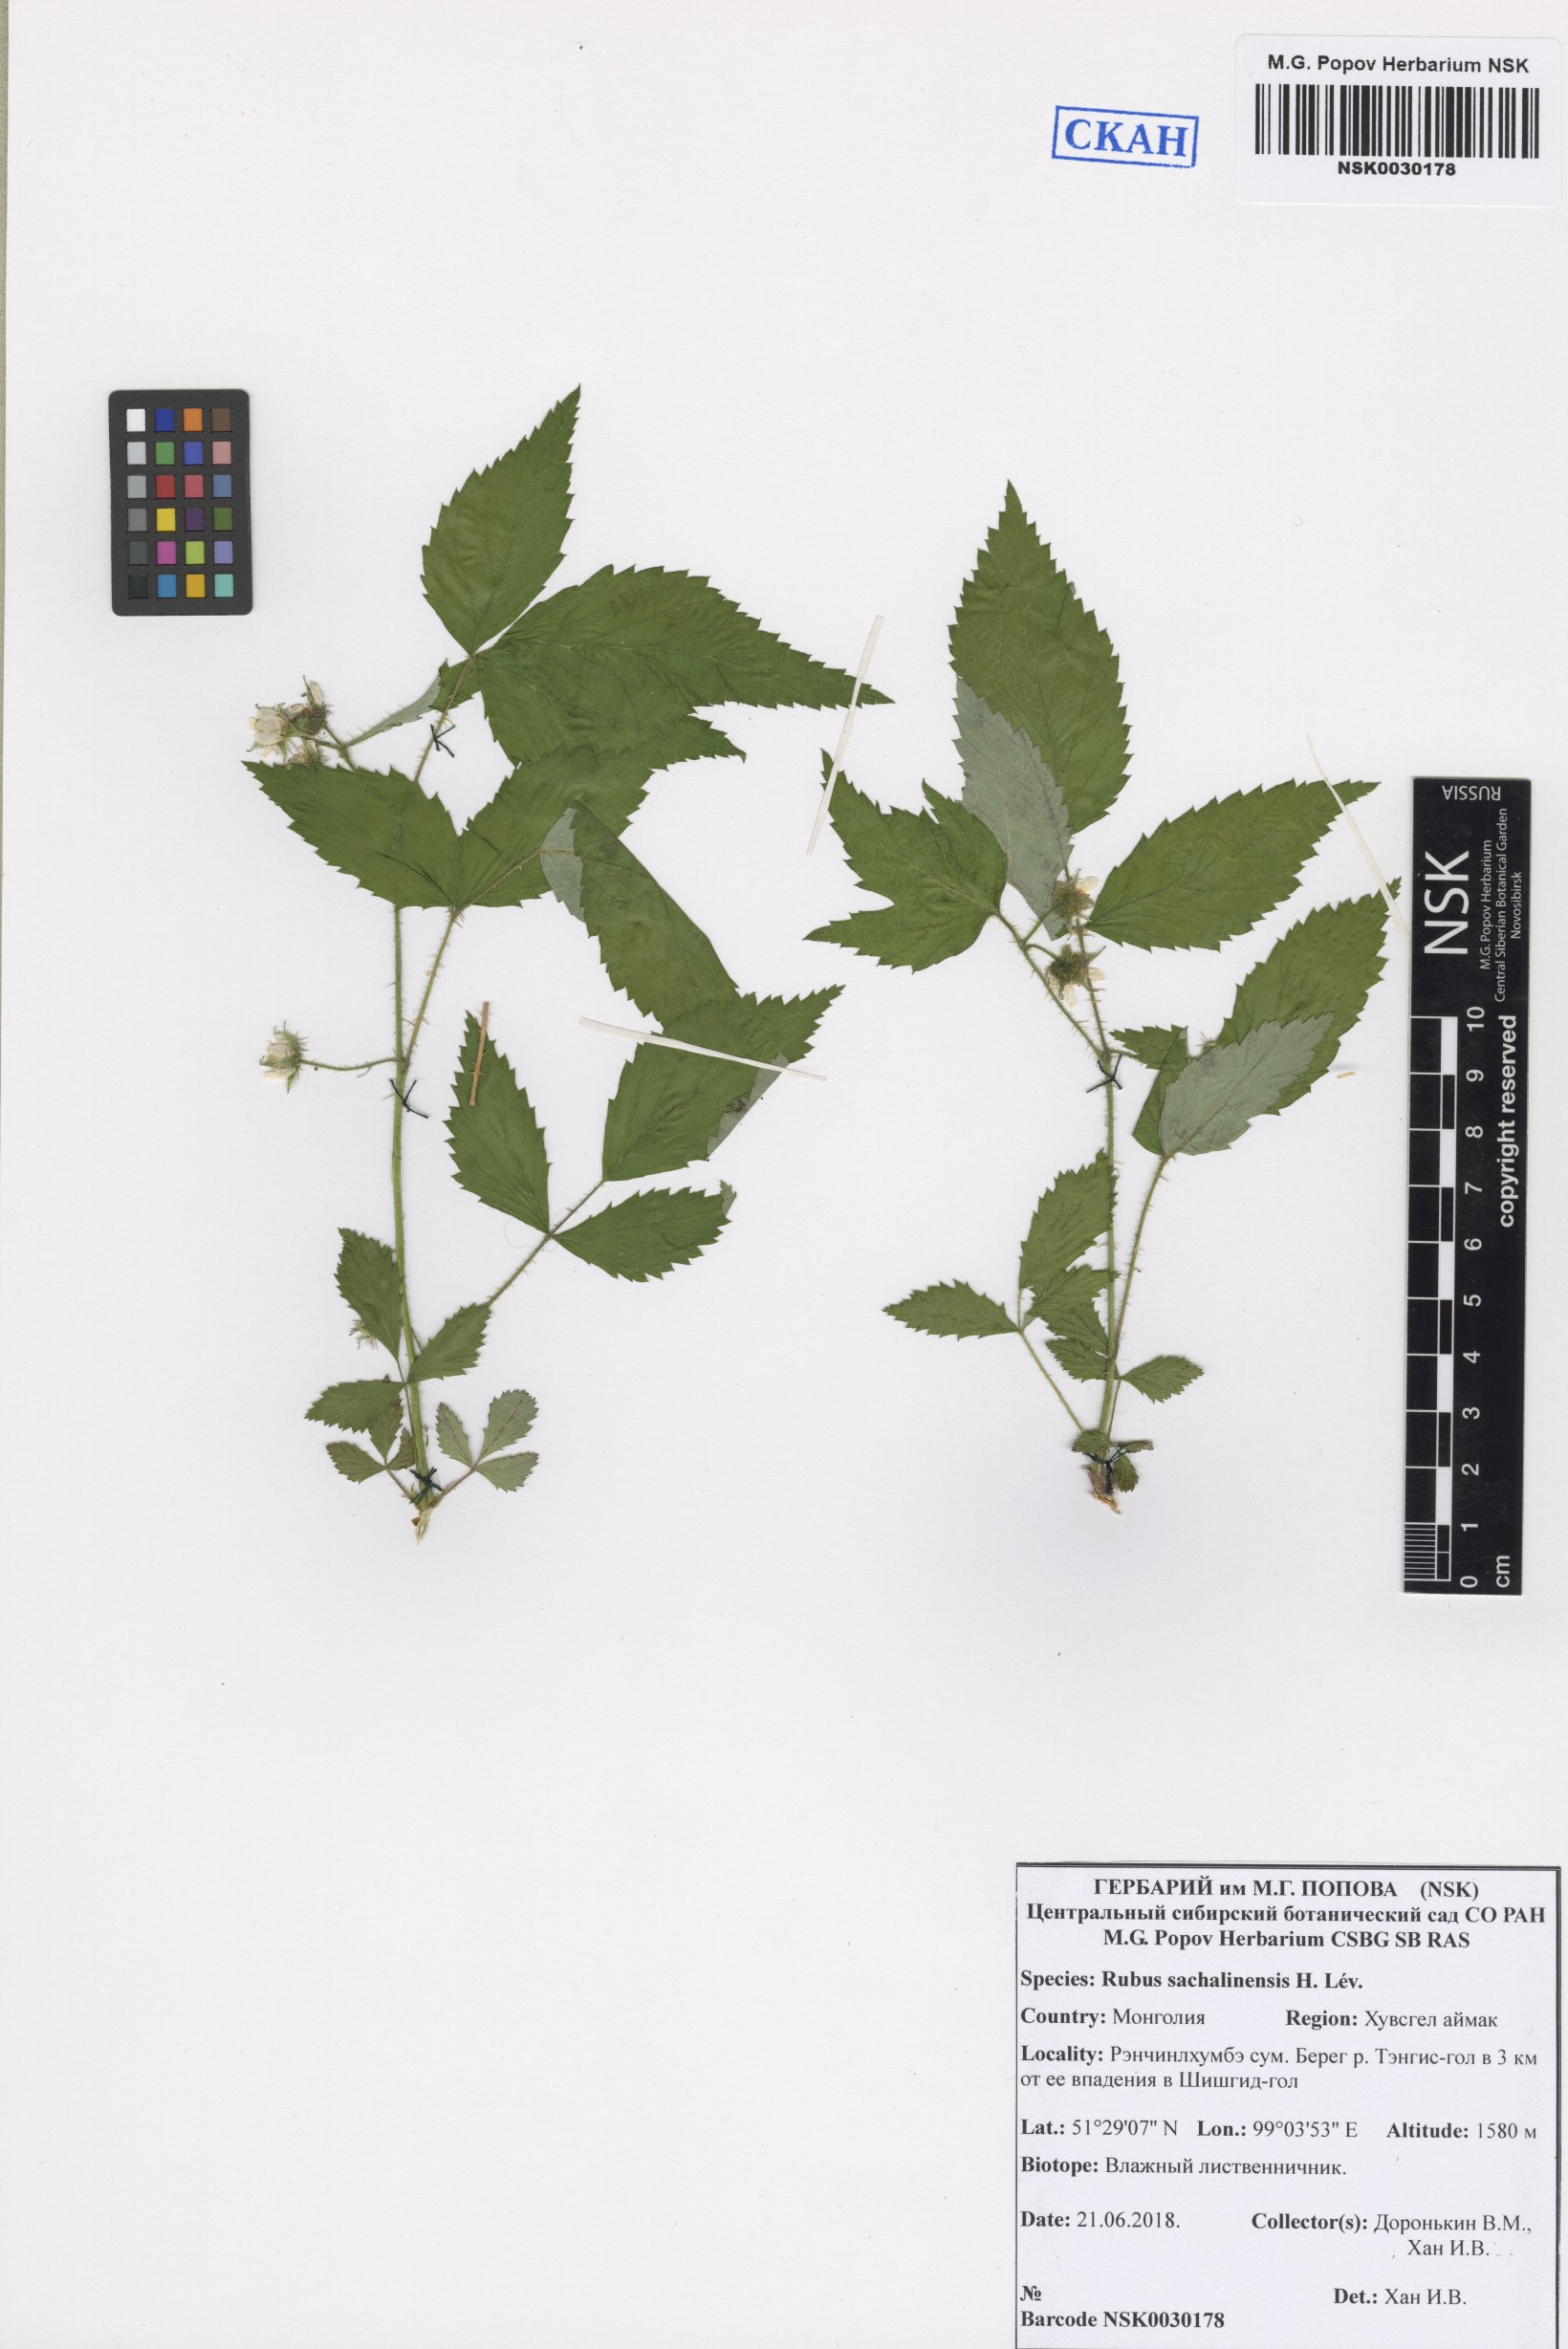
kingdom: Plantae
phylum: Tracheophyta
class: Magnoliopsida
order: Rosales
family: Rosaceae
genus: Rubus
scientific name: Rubus sachalinensis
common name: Red raspberry
